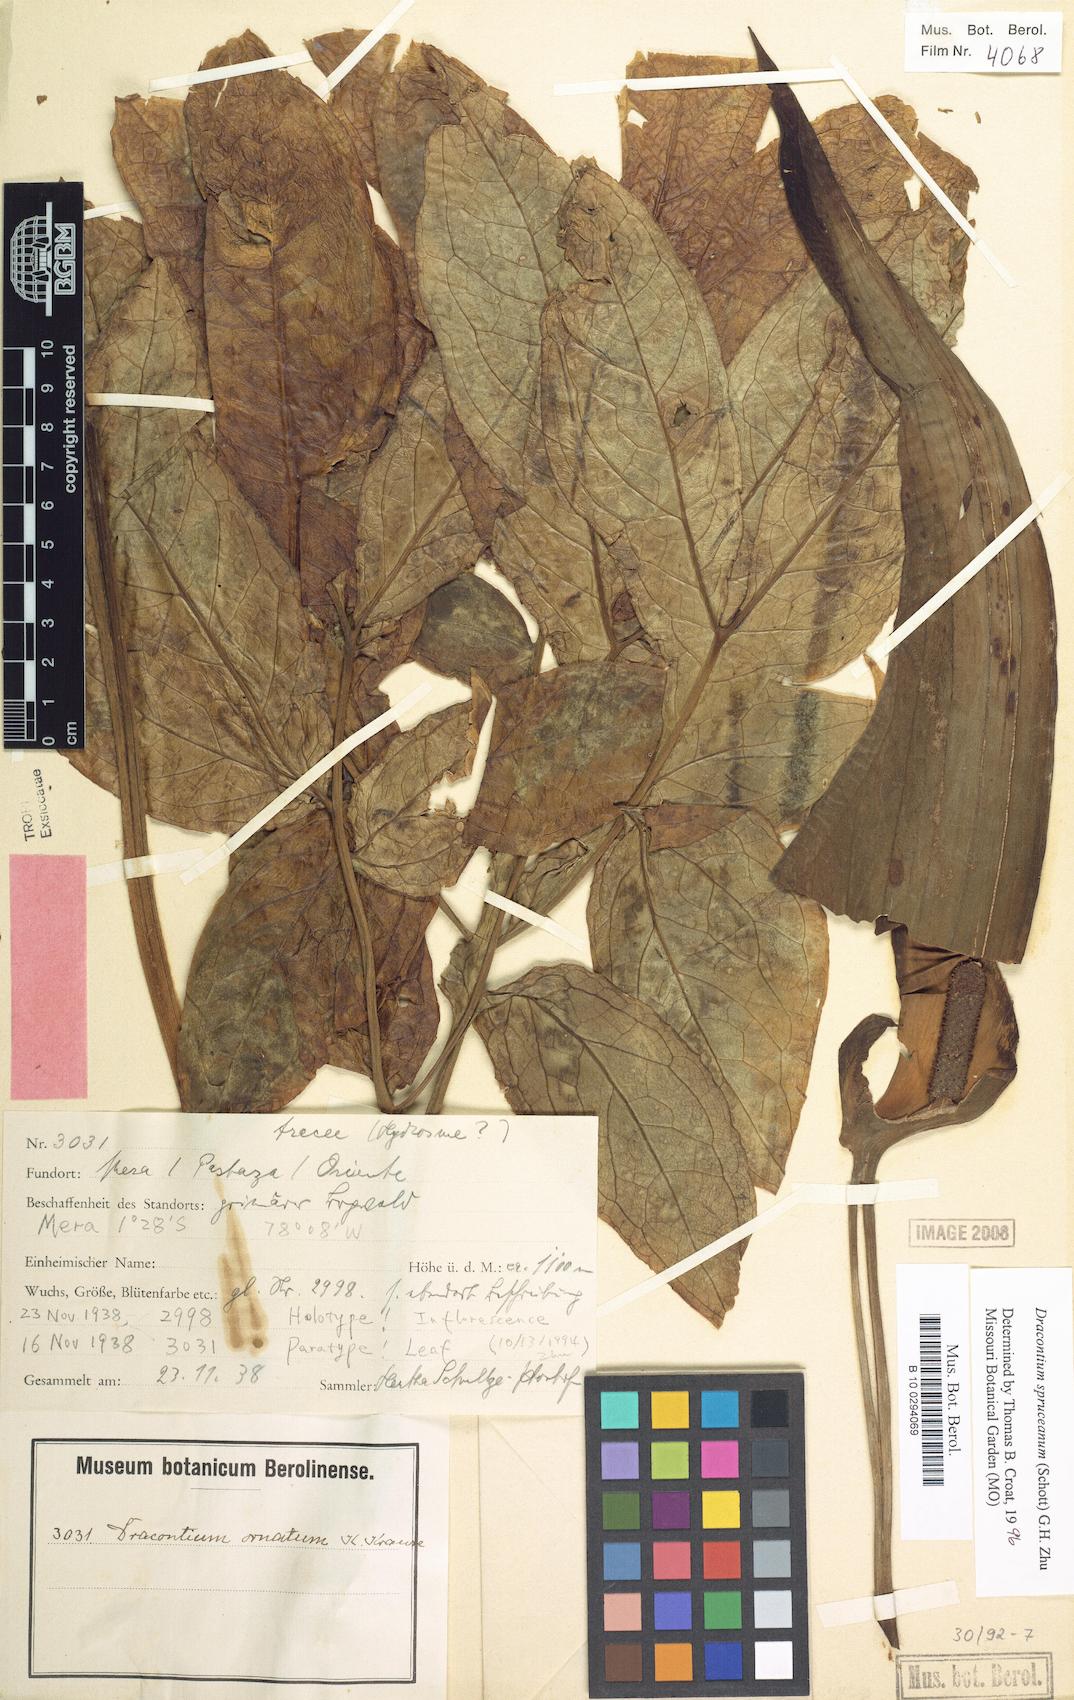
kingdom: Plantae
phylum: Tracheophyta
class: Liliopsida
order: Alismatales
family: Araceae
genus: Dracontium
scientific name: Dracontium spruceanum
